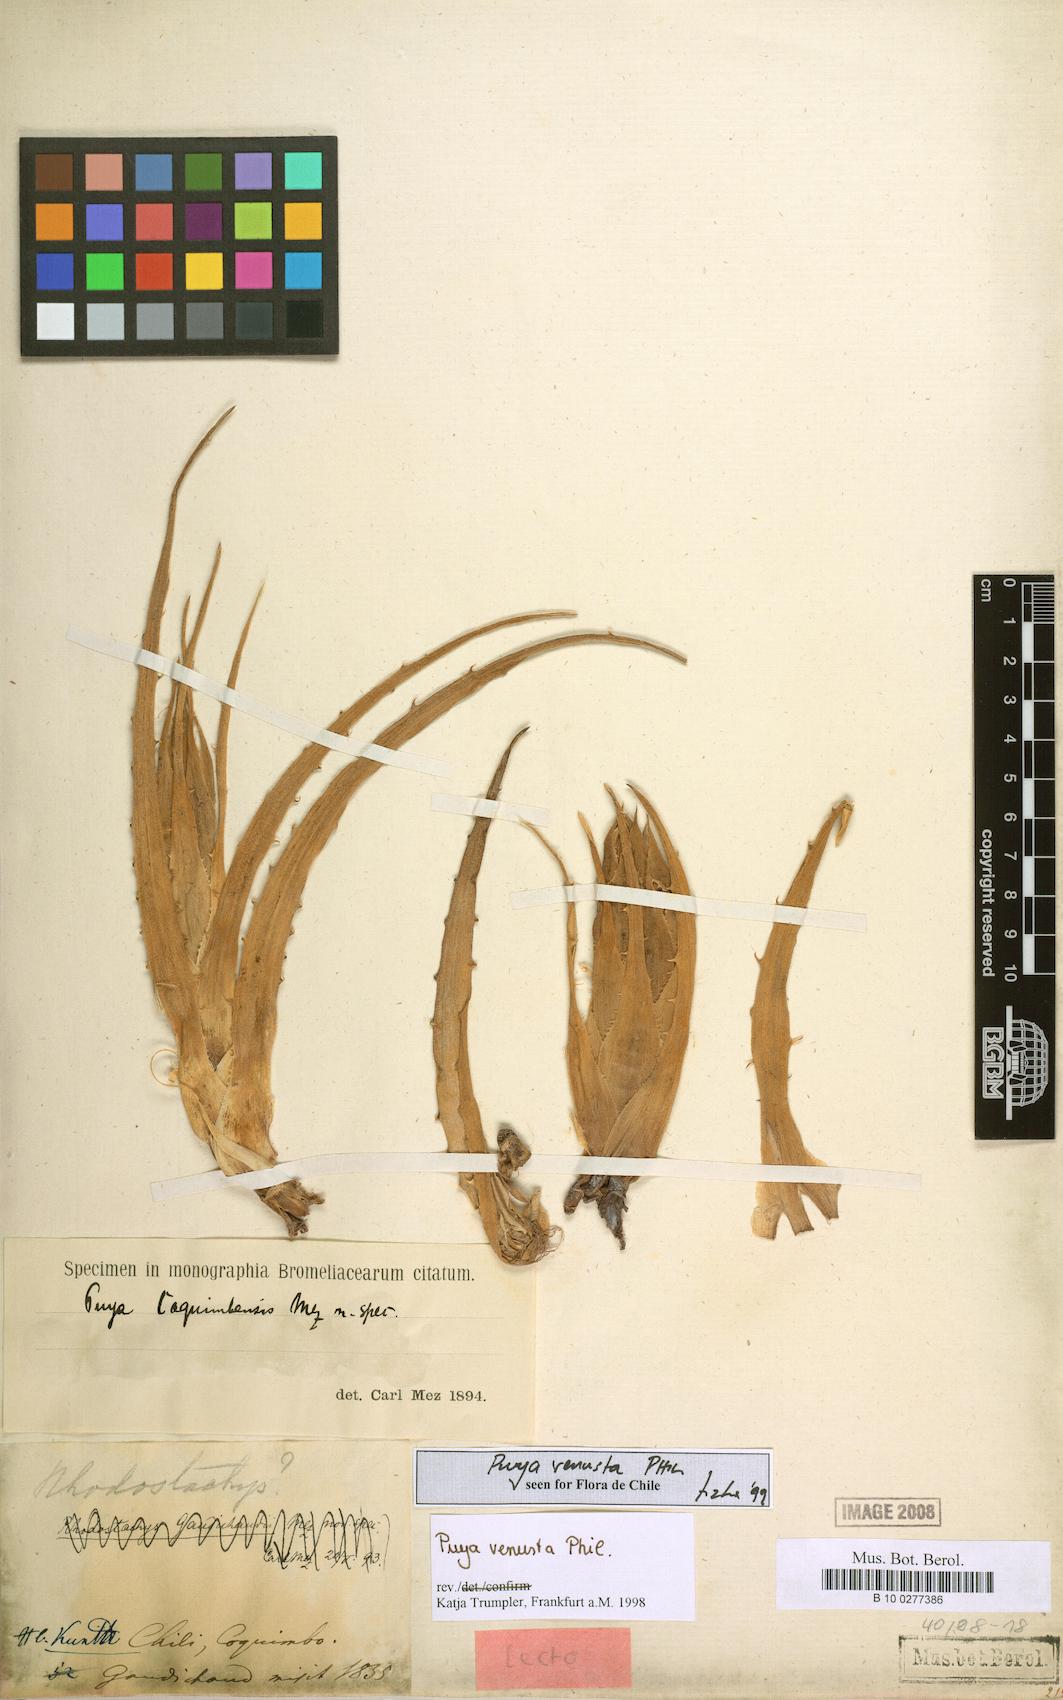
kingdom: Plantae
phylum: Tracheophyta
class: Liliopsida
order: Poales
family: Bromeliaceae
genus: Puya
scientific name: Puya venusta
